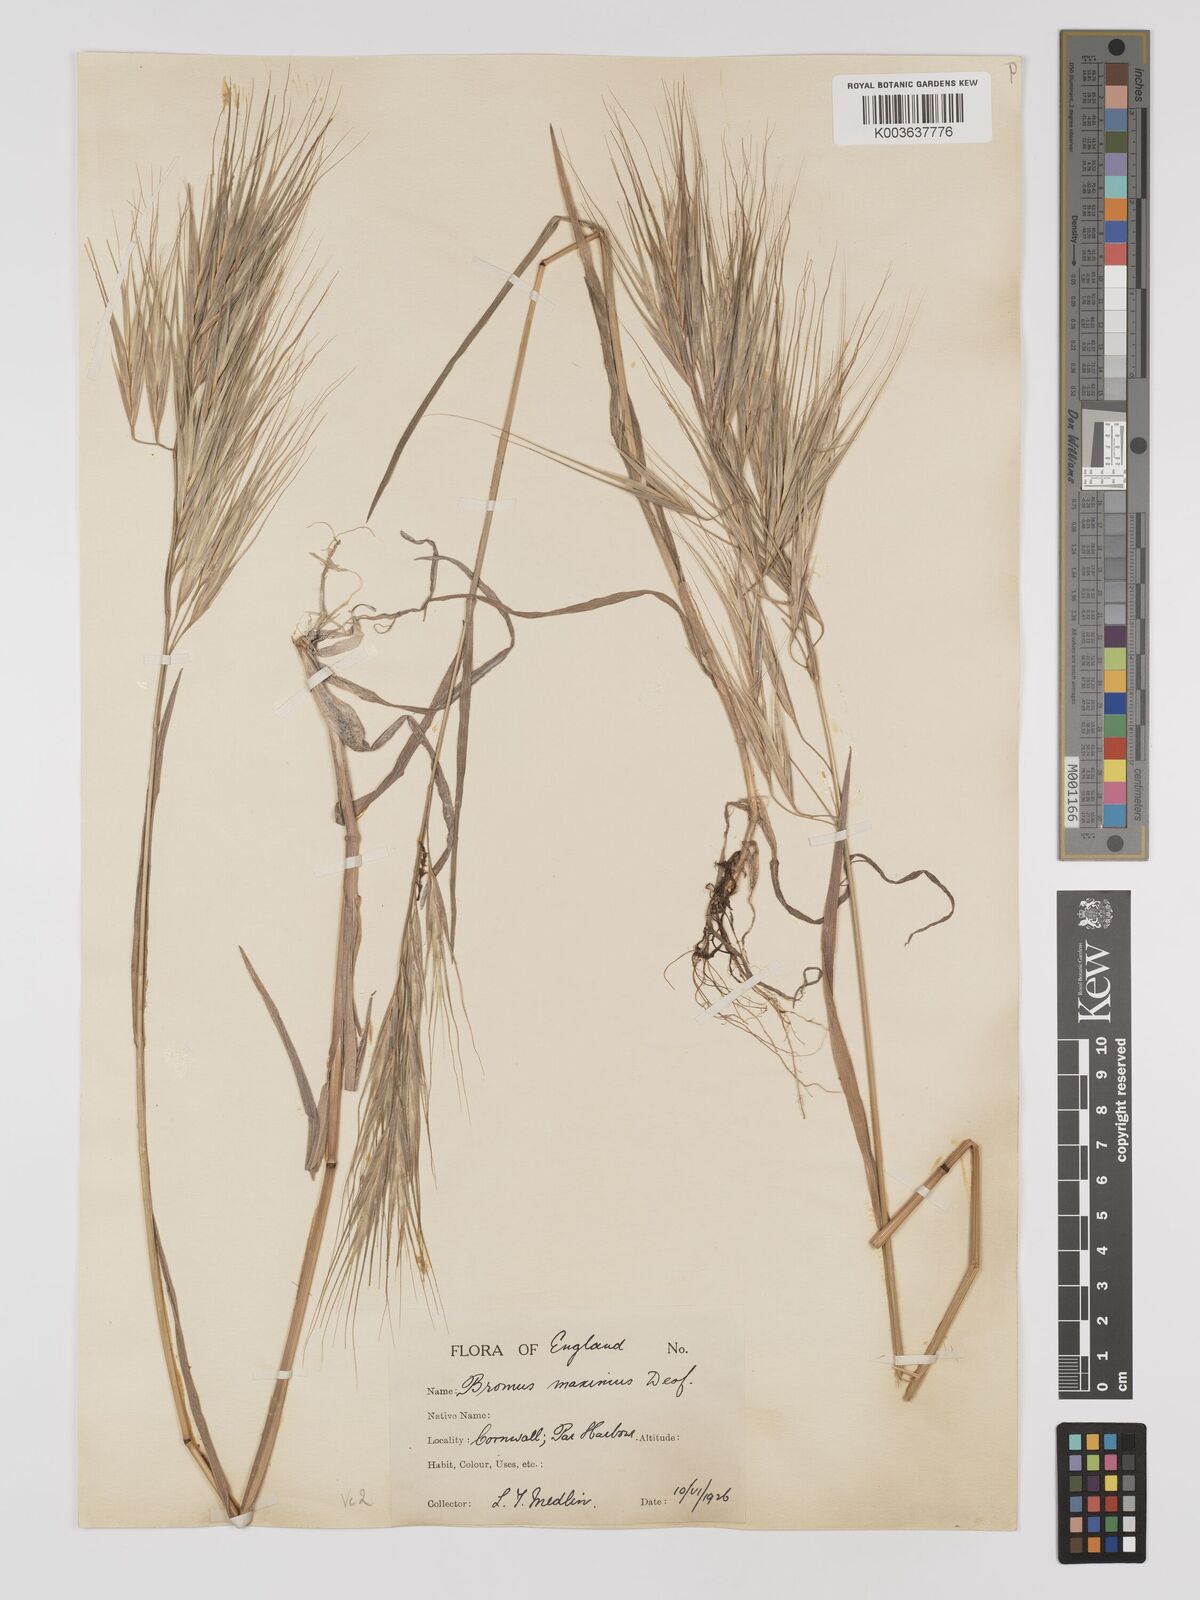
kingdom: Plantae
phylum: Tracheophyta
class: Liliopsida
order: Poales
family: Poaceae
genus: Bromus
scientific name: Bromus
